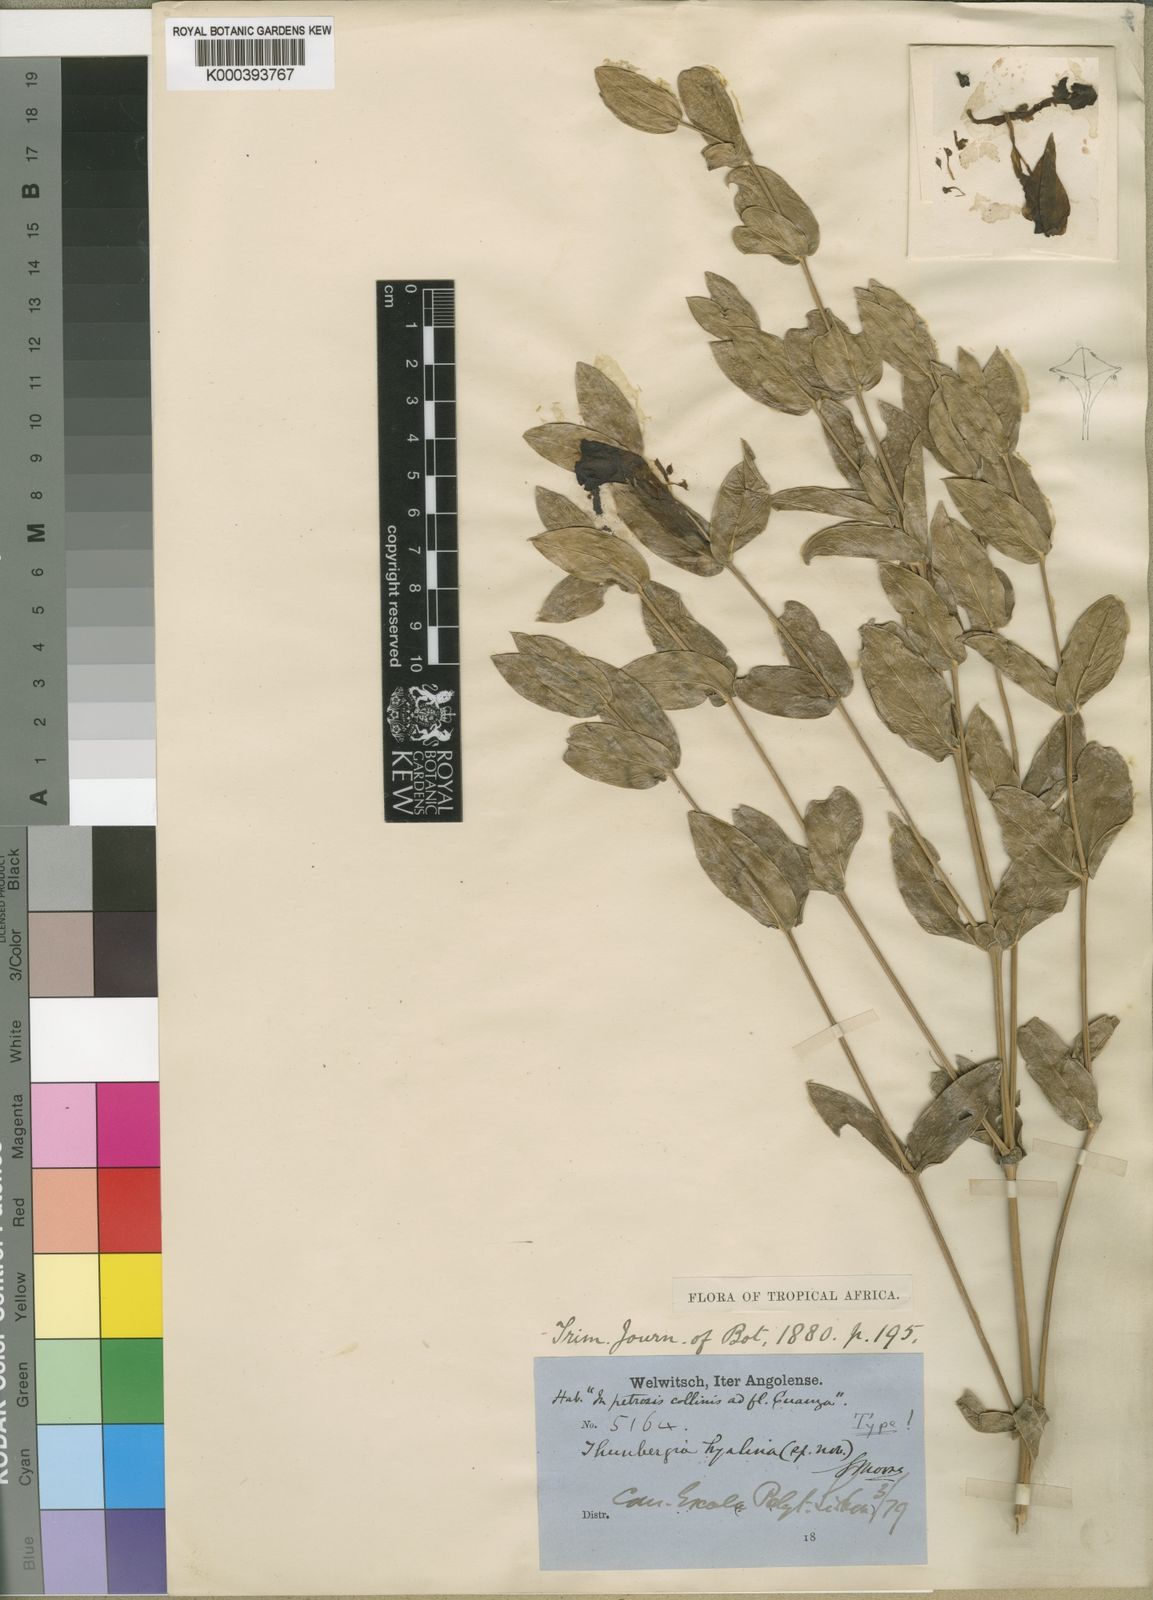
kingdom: Plantae
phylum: Tracheophyta
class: Magnoliopsida
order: Lamiales
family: Acanthaceae
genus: Thunbergia
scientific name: Thunbergia hyalina
